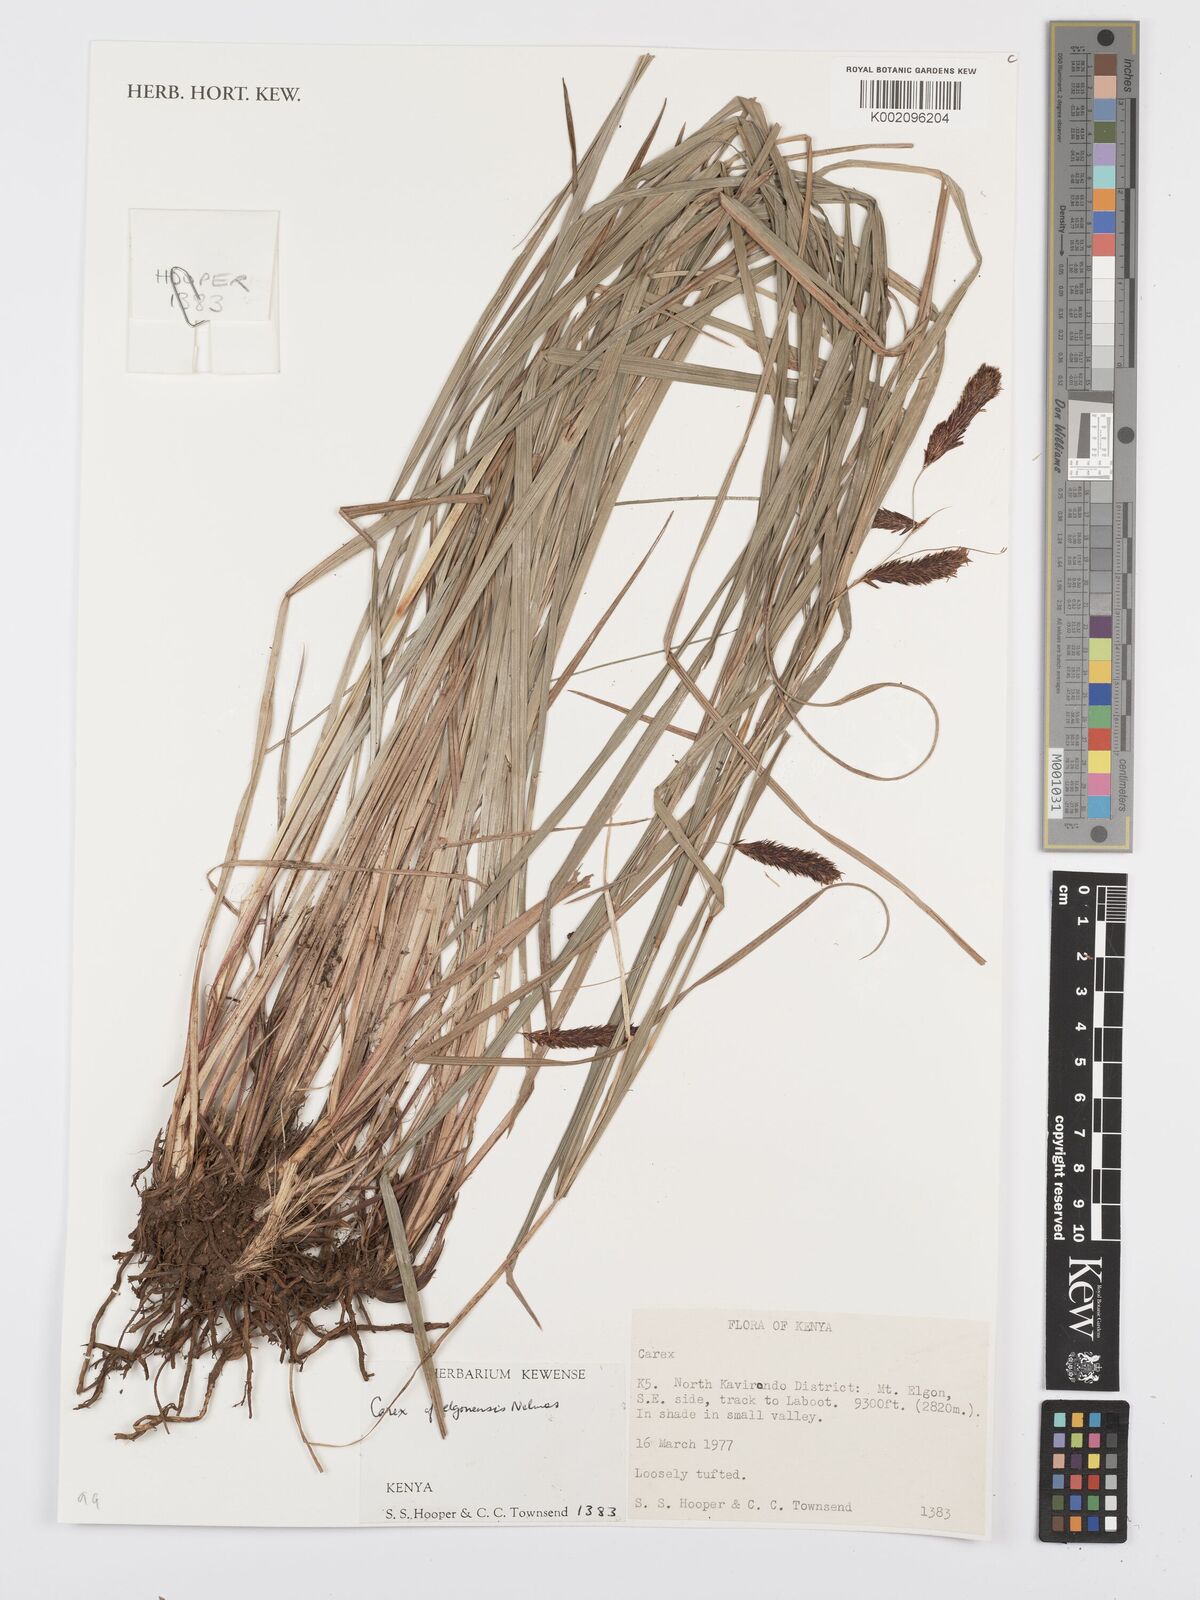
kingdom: Plantae
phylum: Tracheophyta
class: Liliopsida
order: Poales
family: Cyperaceae
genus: Carex
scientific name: Carex
